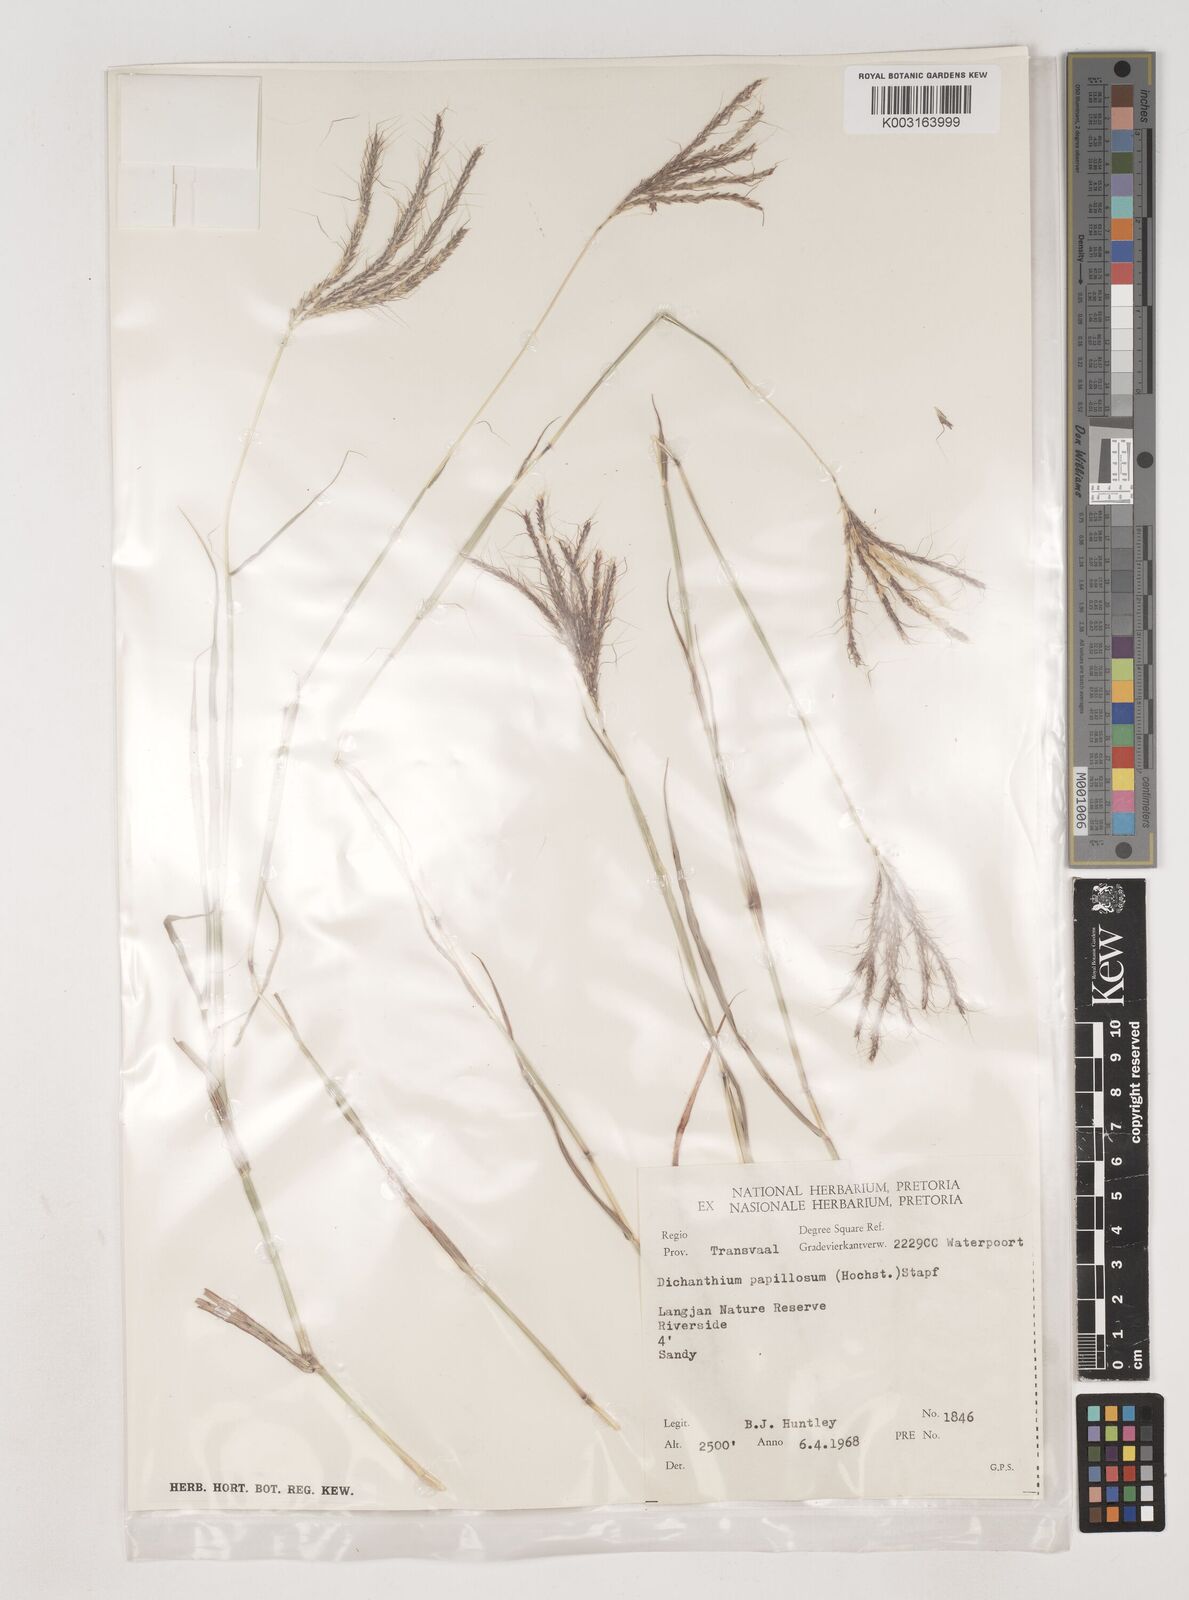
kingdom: Plantae
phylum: Tracheophyta
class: Liliopsida
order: Poales
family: Poaceae
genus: Dichanthium
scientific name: Dichanthium annulatum
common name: Kleberg's bluestem
